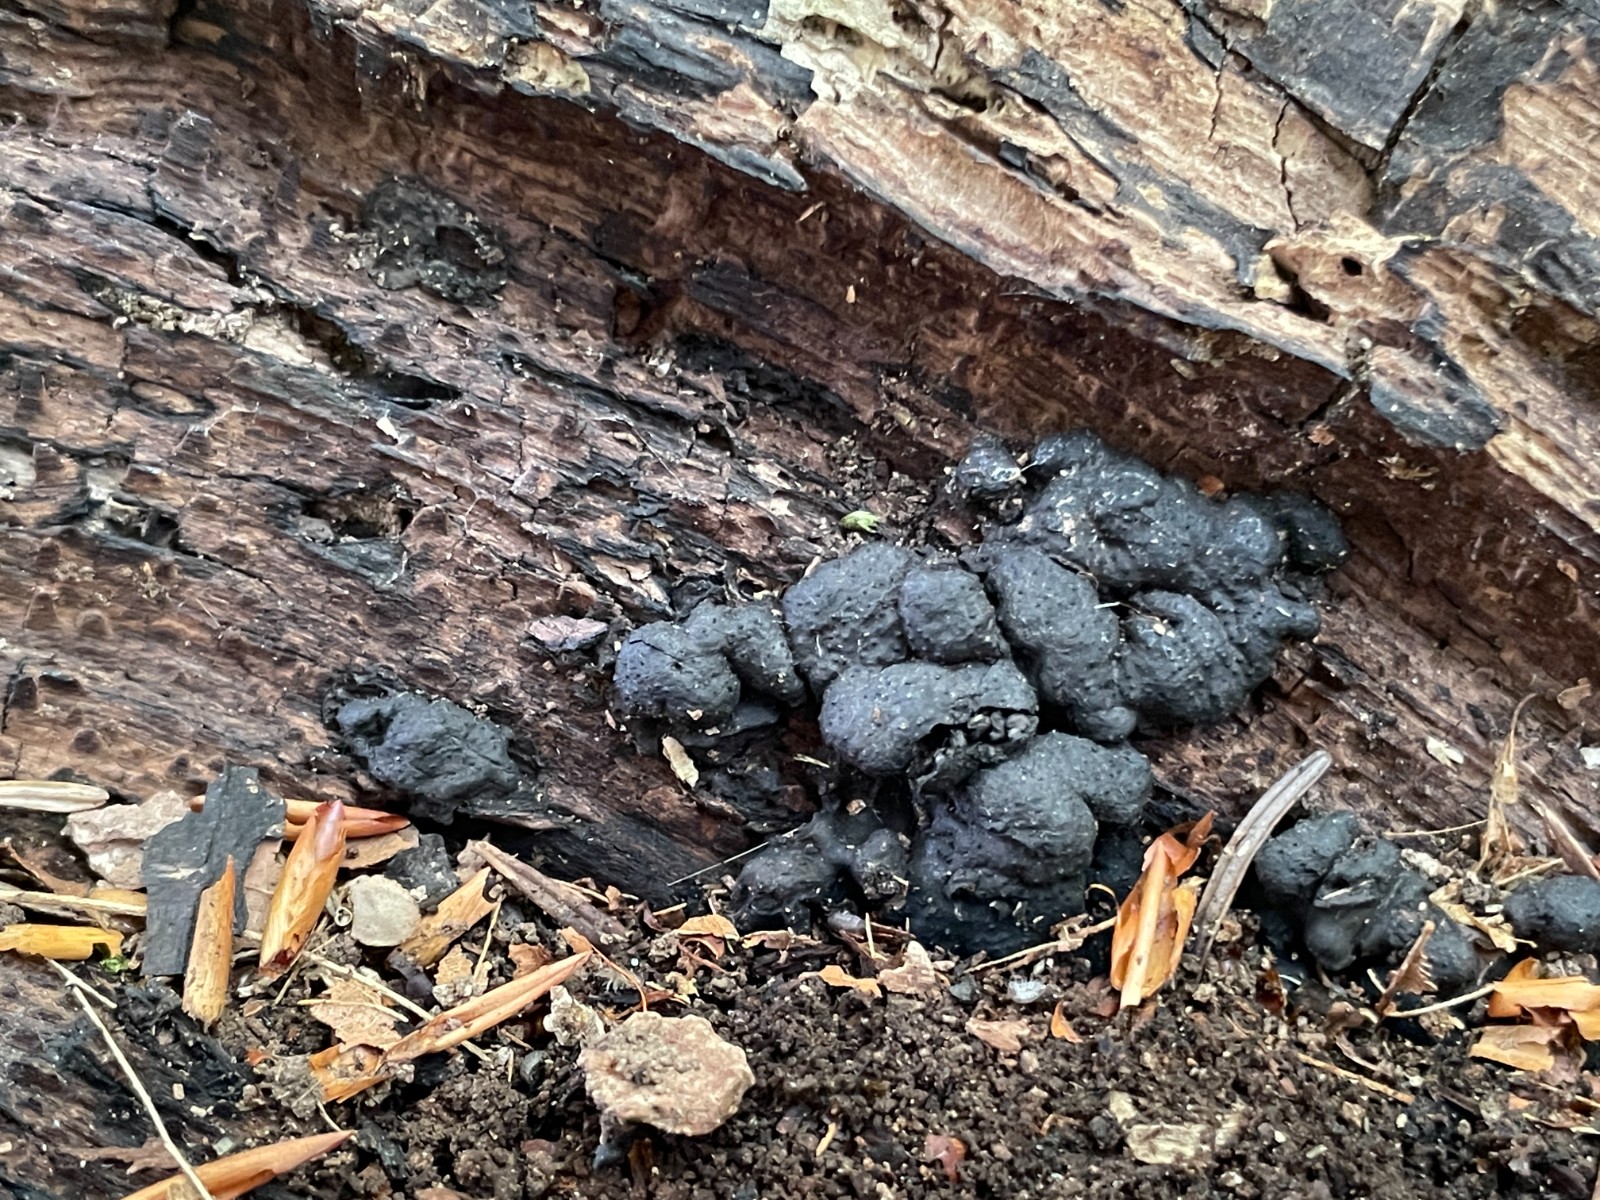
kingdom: Fungi
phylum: Ascomycota
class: Sordariomycetes
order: Xylariales
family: Xylariaceae
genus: Kretzschmaria
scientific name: Kretzschmaria deusta
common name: stor kulsvamp
